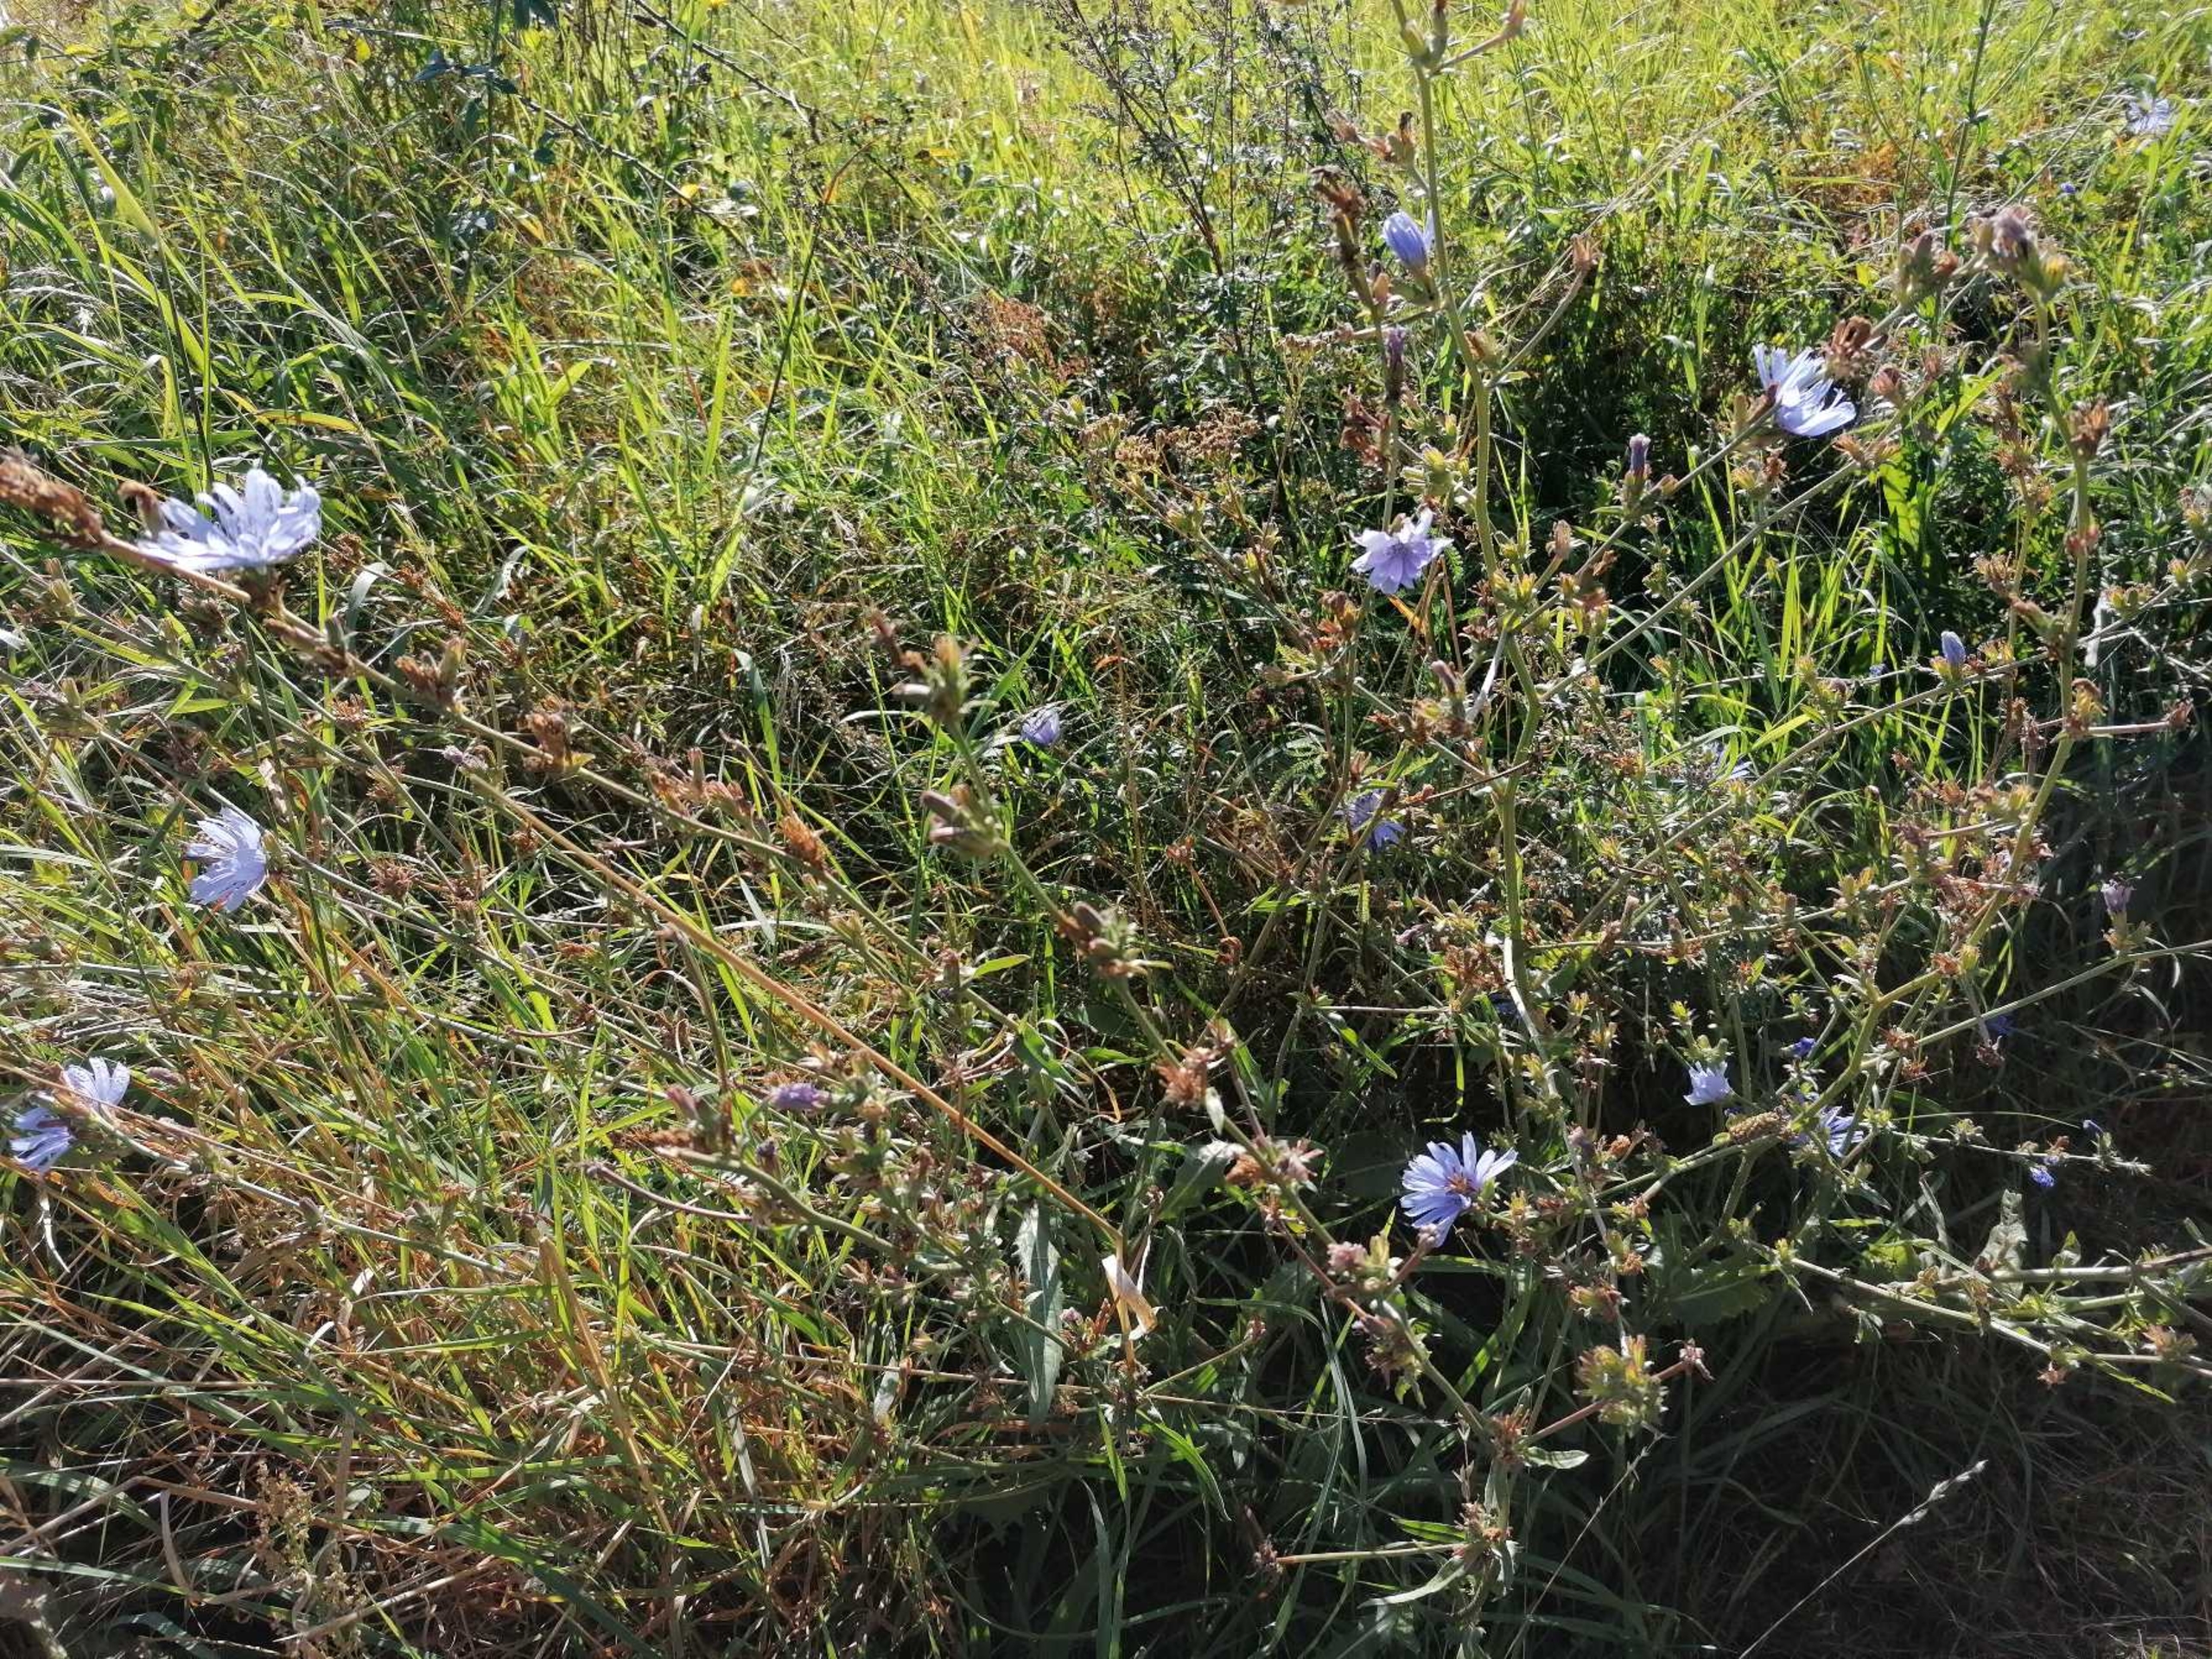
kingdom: Plantae
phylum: Tracheophyta
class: Magnoliopsida
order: Asterales
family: Asteraceae
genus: Cichorium
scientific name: Cichorium intybus
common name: Cikorie
